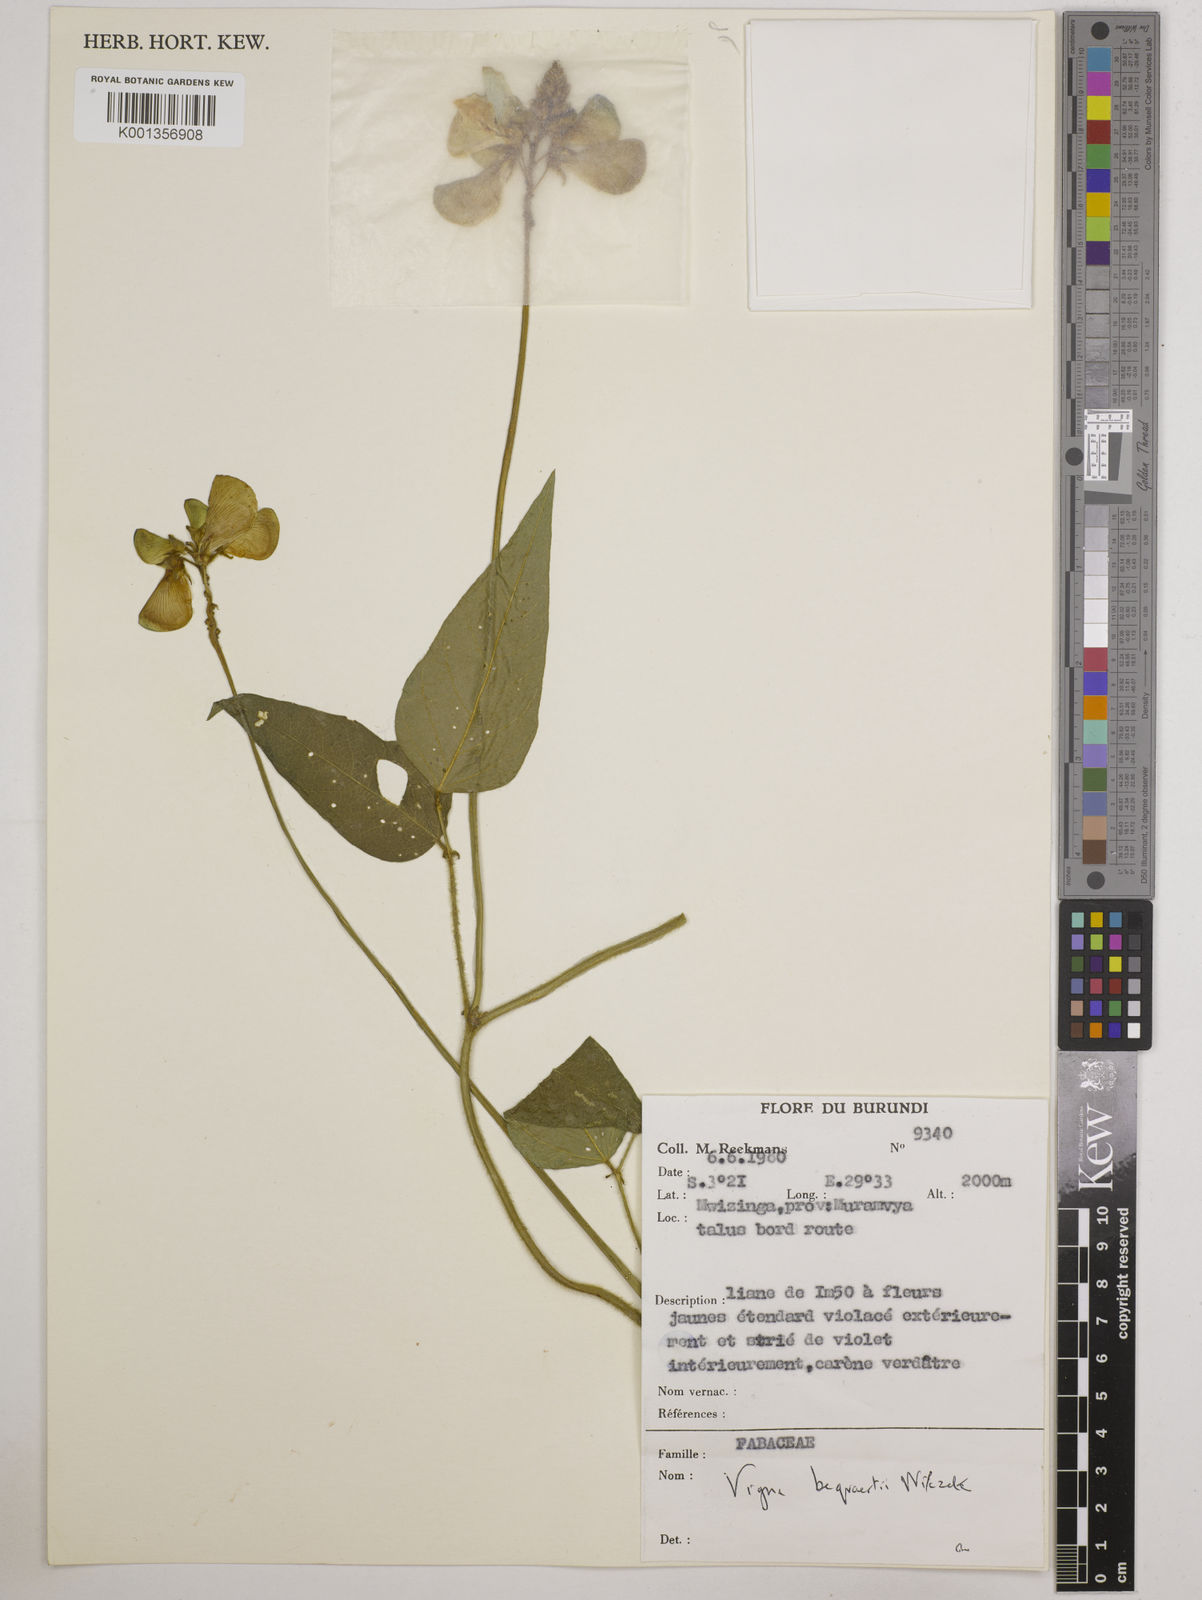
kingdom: Plantae
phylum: Tracheophyta
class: Magnoliopsida
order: Fabales
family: Fabaceae
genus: Vigna
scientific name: Vigna bequaertii
